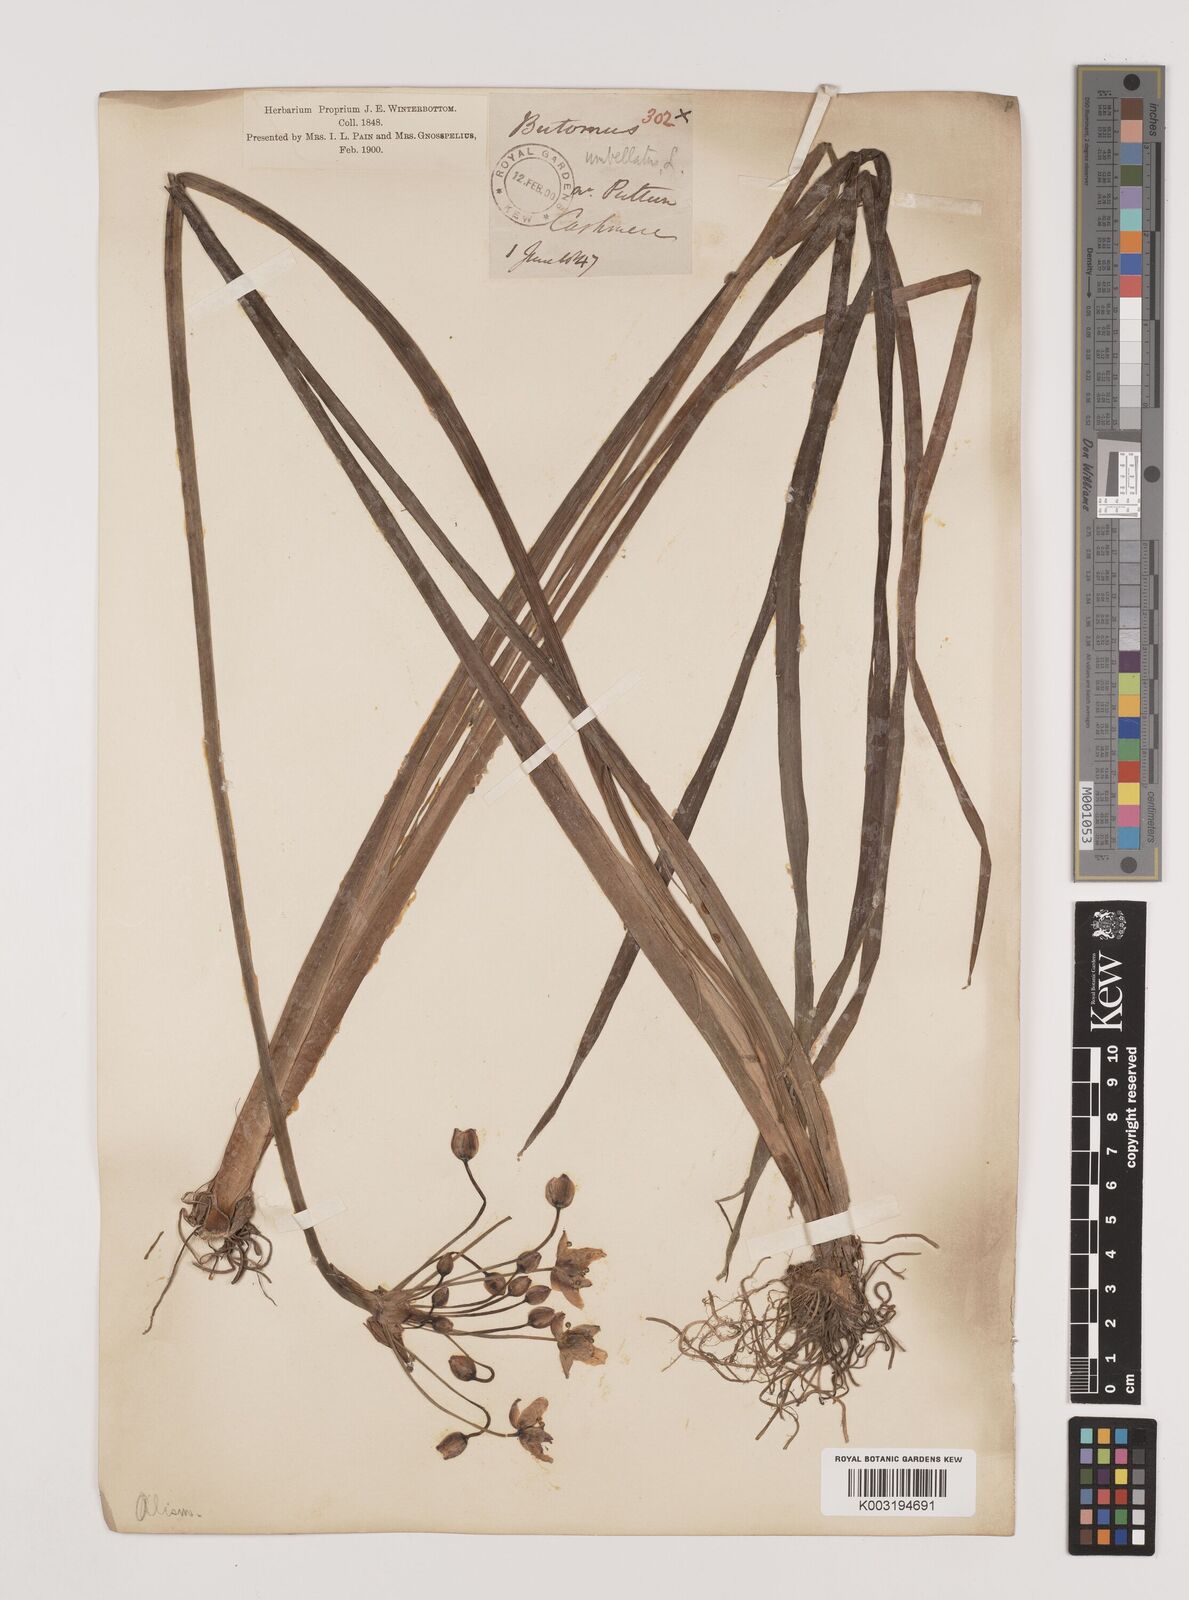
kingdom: Plantae
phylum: Tracheophyta
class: Liliopsida
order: Alismatales
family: Butomaceae
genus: Butomus
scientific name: Butomus umbellatus
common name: Flowering-rush
